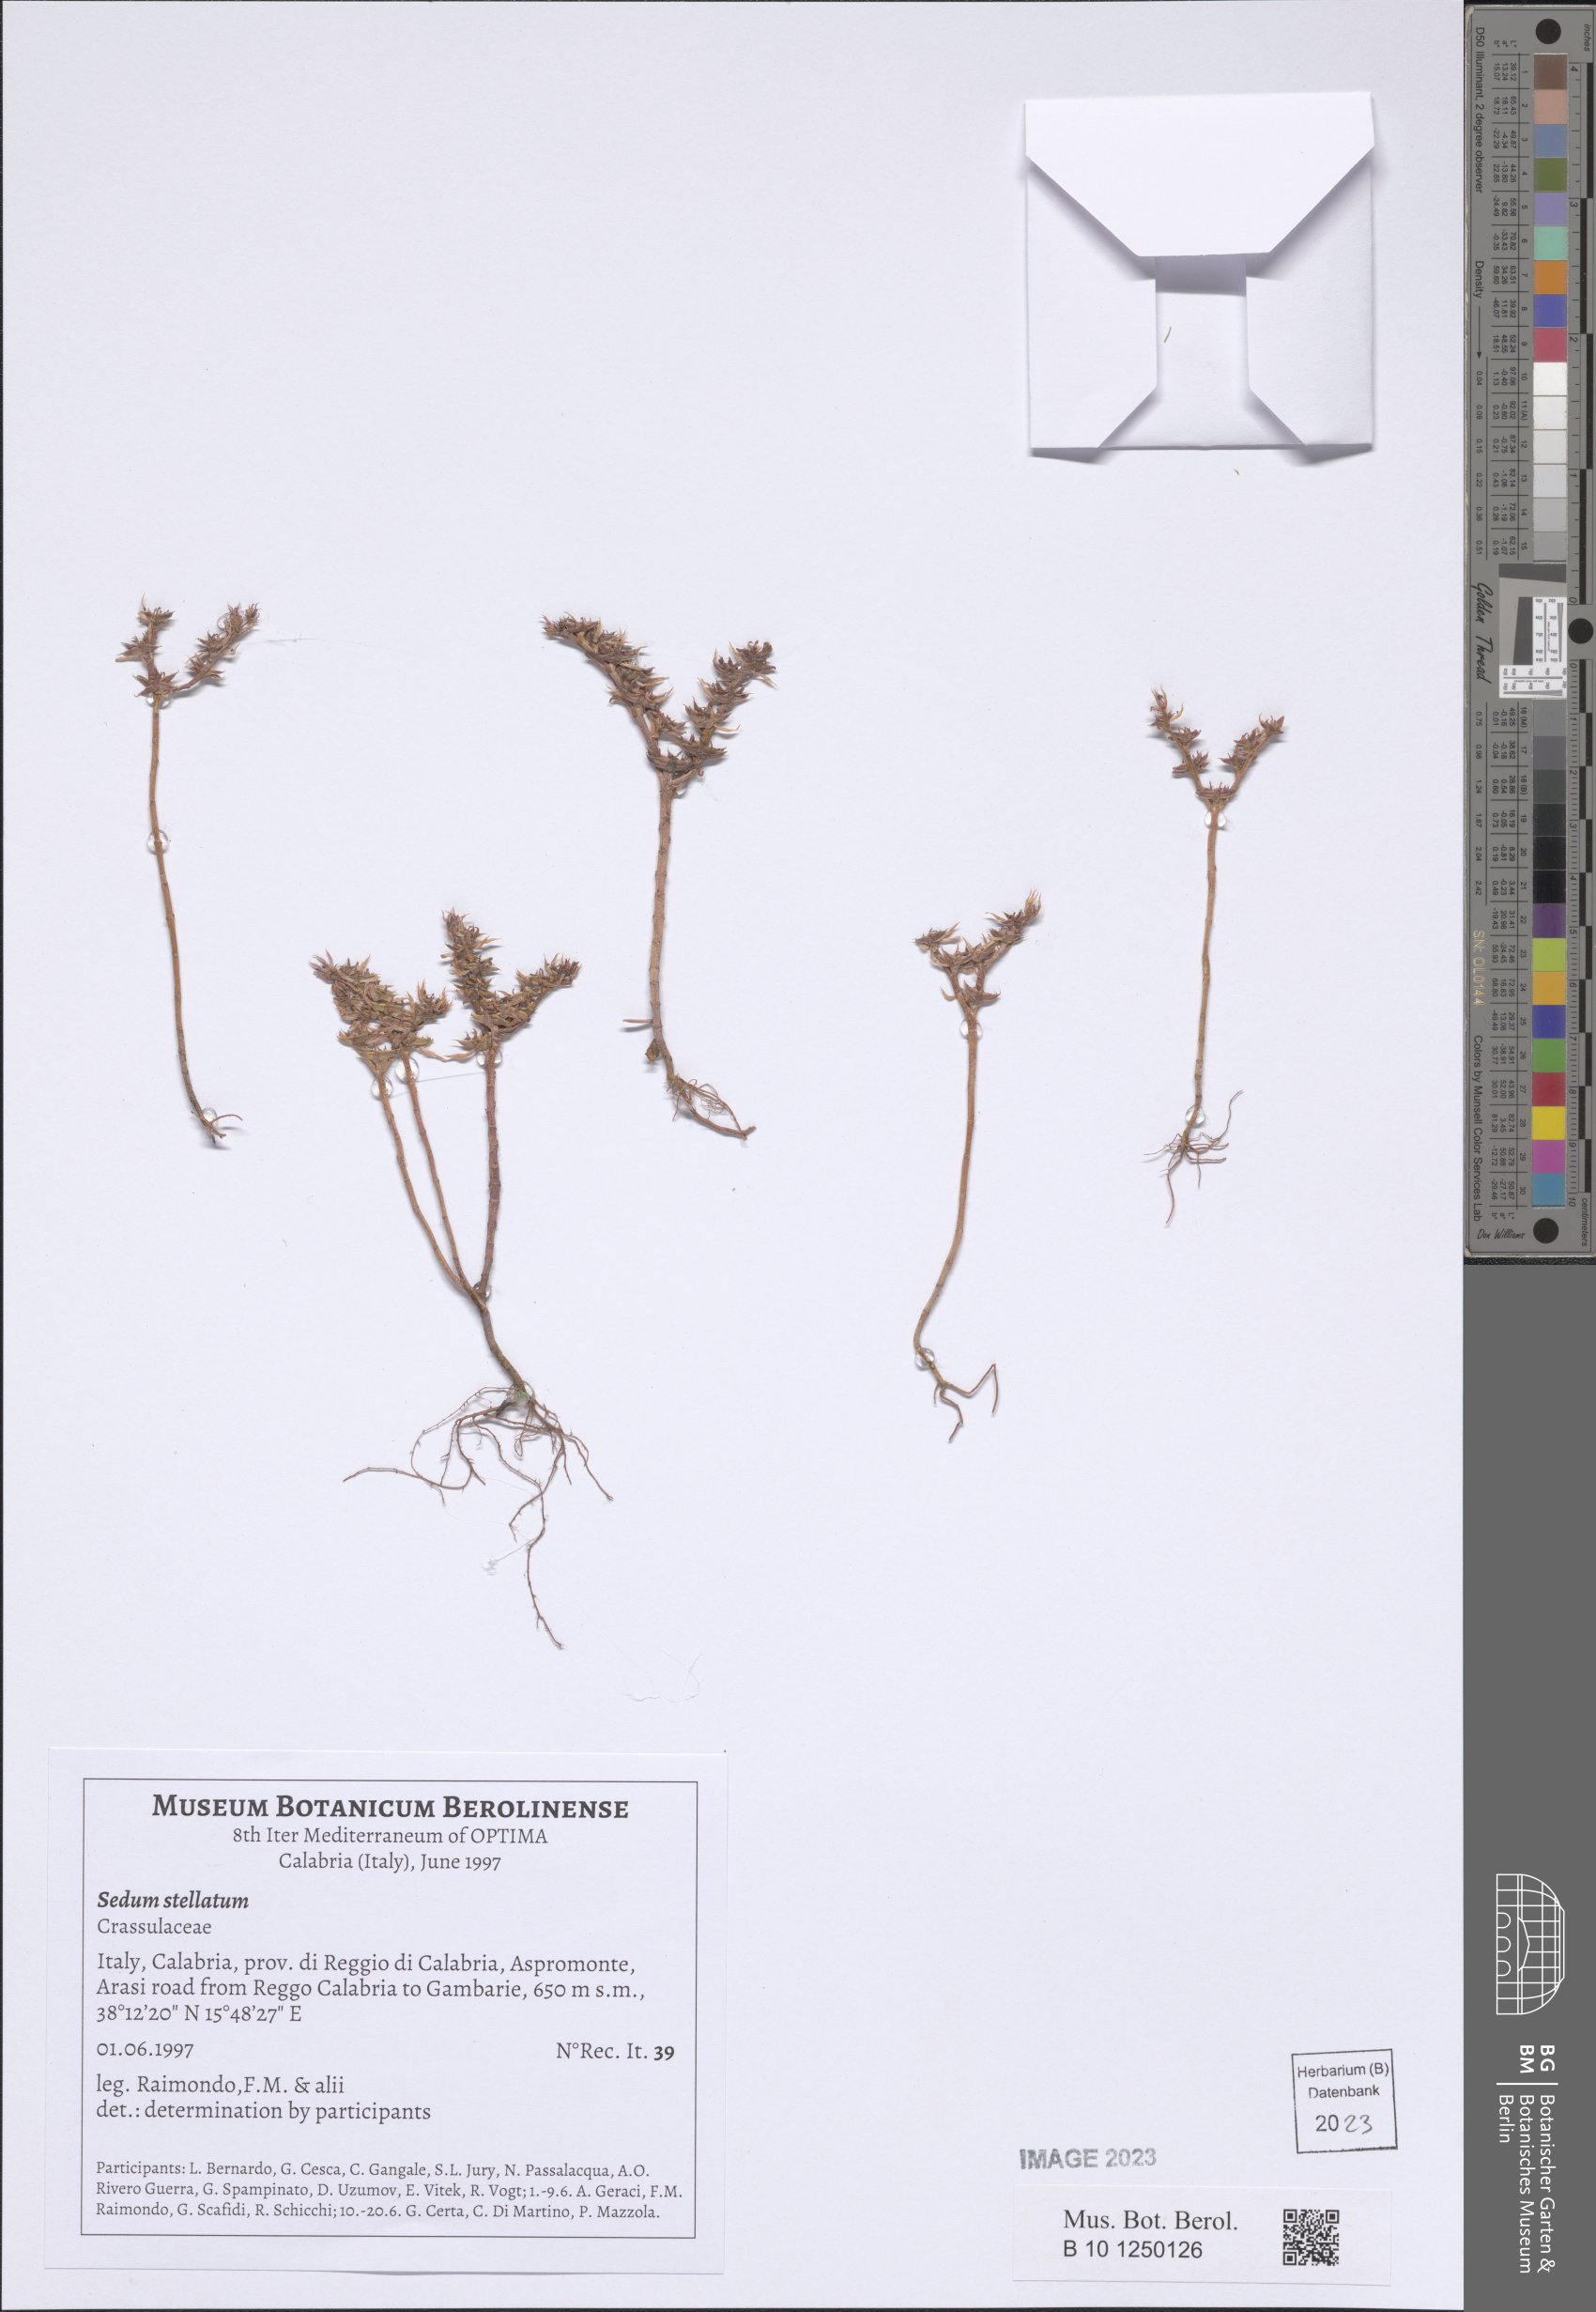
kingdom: Plantae
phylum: Tracheophyta
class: Magnoliopsida
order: Saxifragales
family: Crassulaceae
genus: Phedimus
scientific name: Phedimus stellatus
